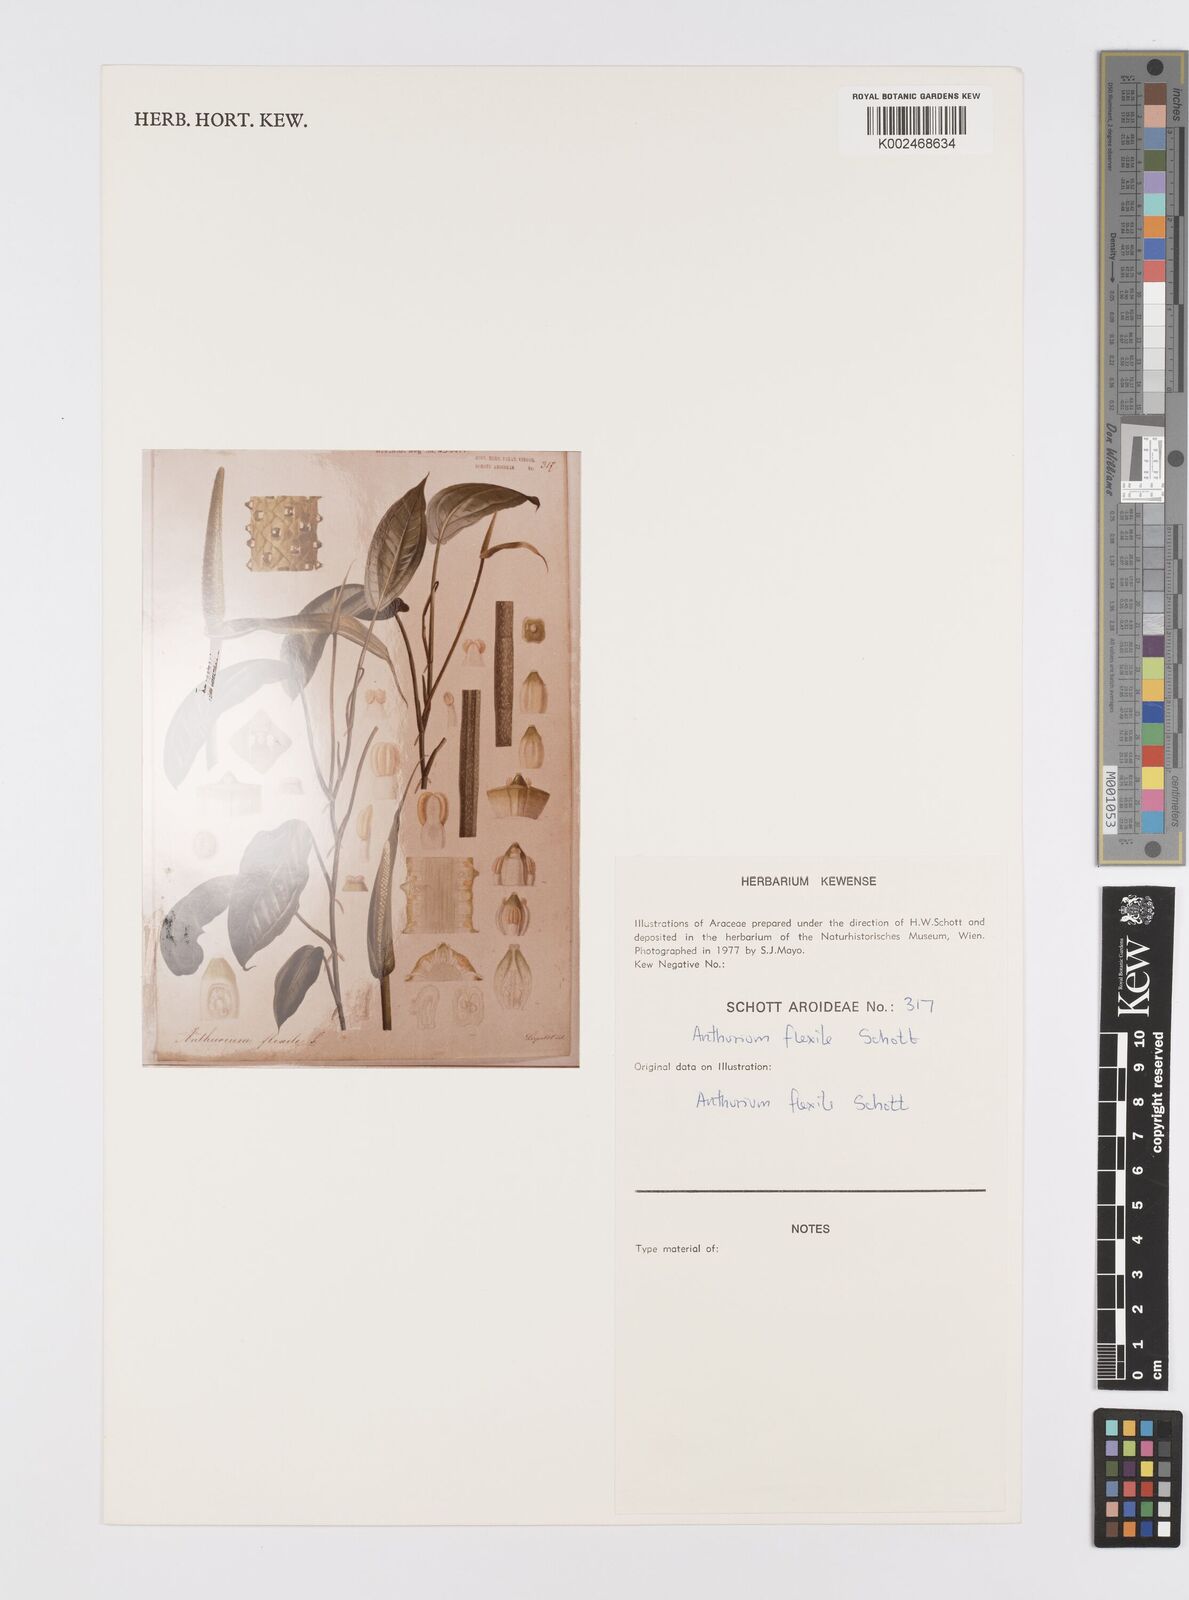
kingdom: Plantae
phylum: Tracheophyta
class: Liliopsida
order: Alismatales
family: Araceae
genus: Anthurium
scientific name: Anthurium flexile
